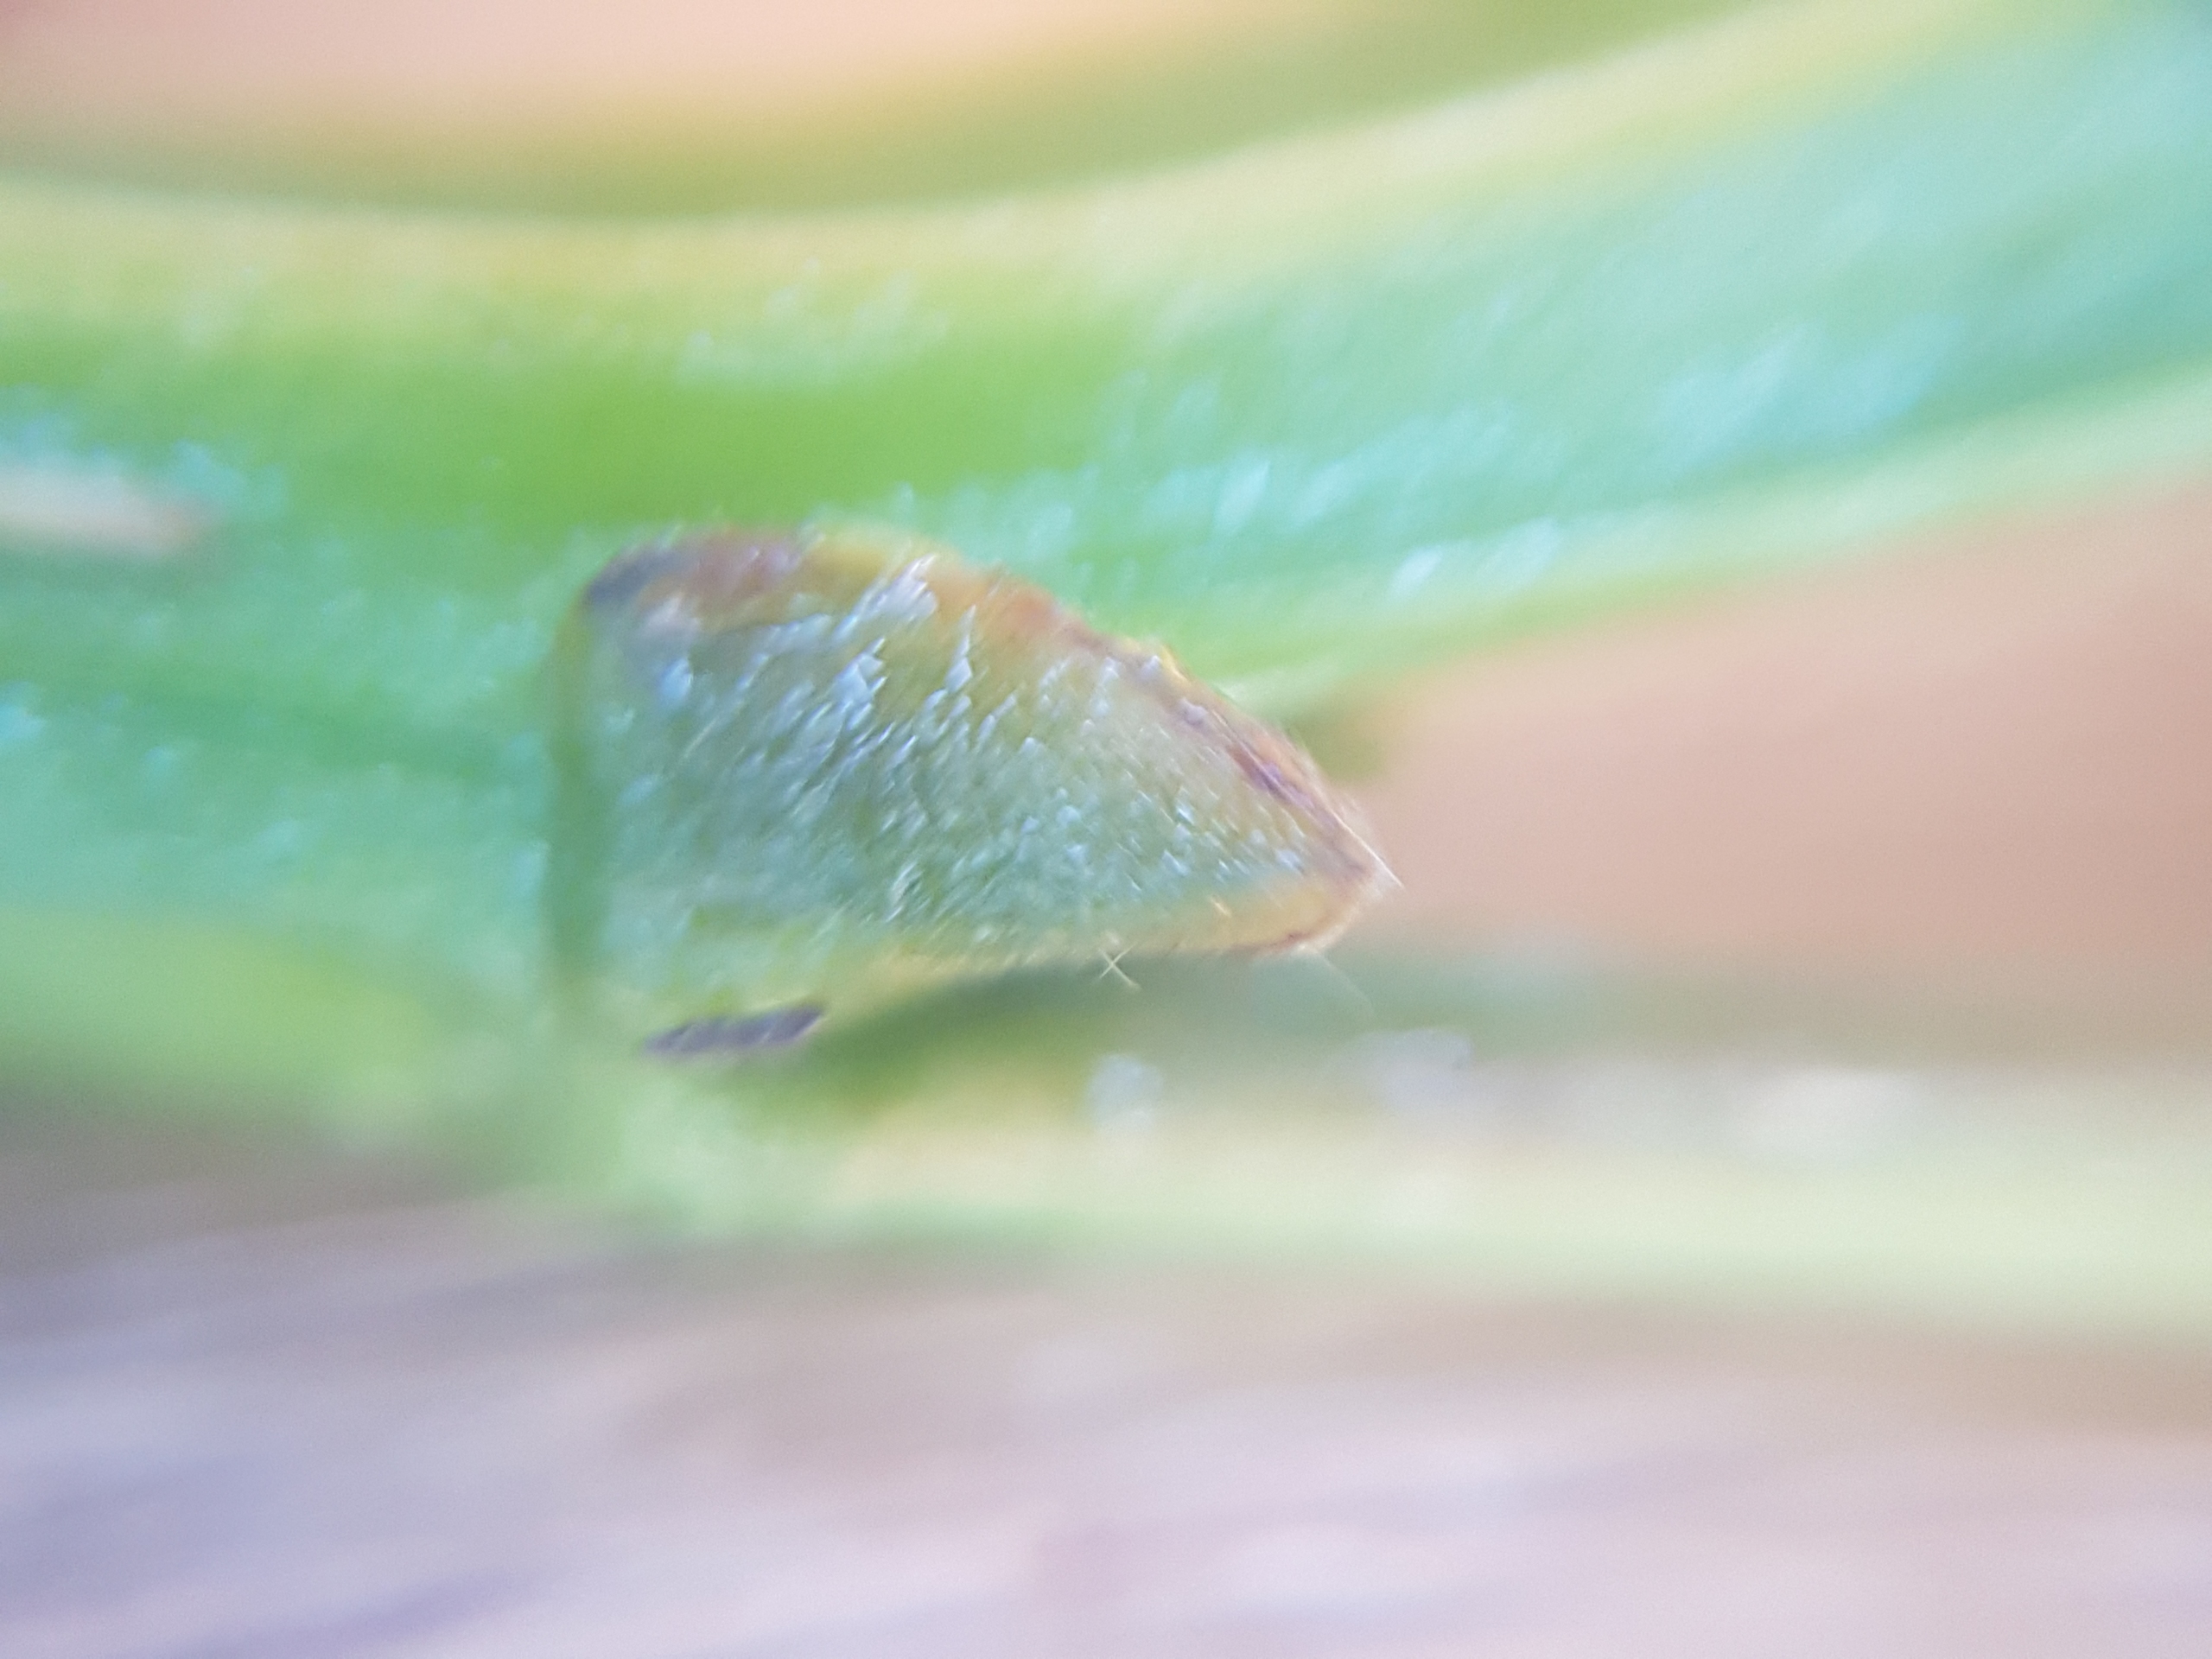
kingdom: Plantae
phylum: Tracheophyta
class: Magnoliopsida
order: Malpighiales
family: Salicaceae
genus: Populus
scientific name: Populus trichocarpa
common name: Vestamerikansk poppel
